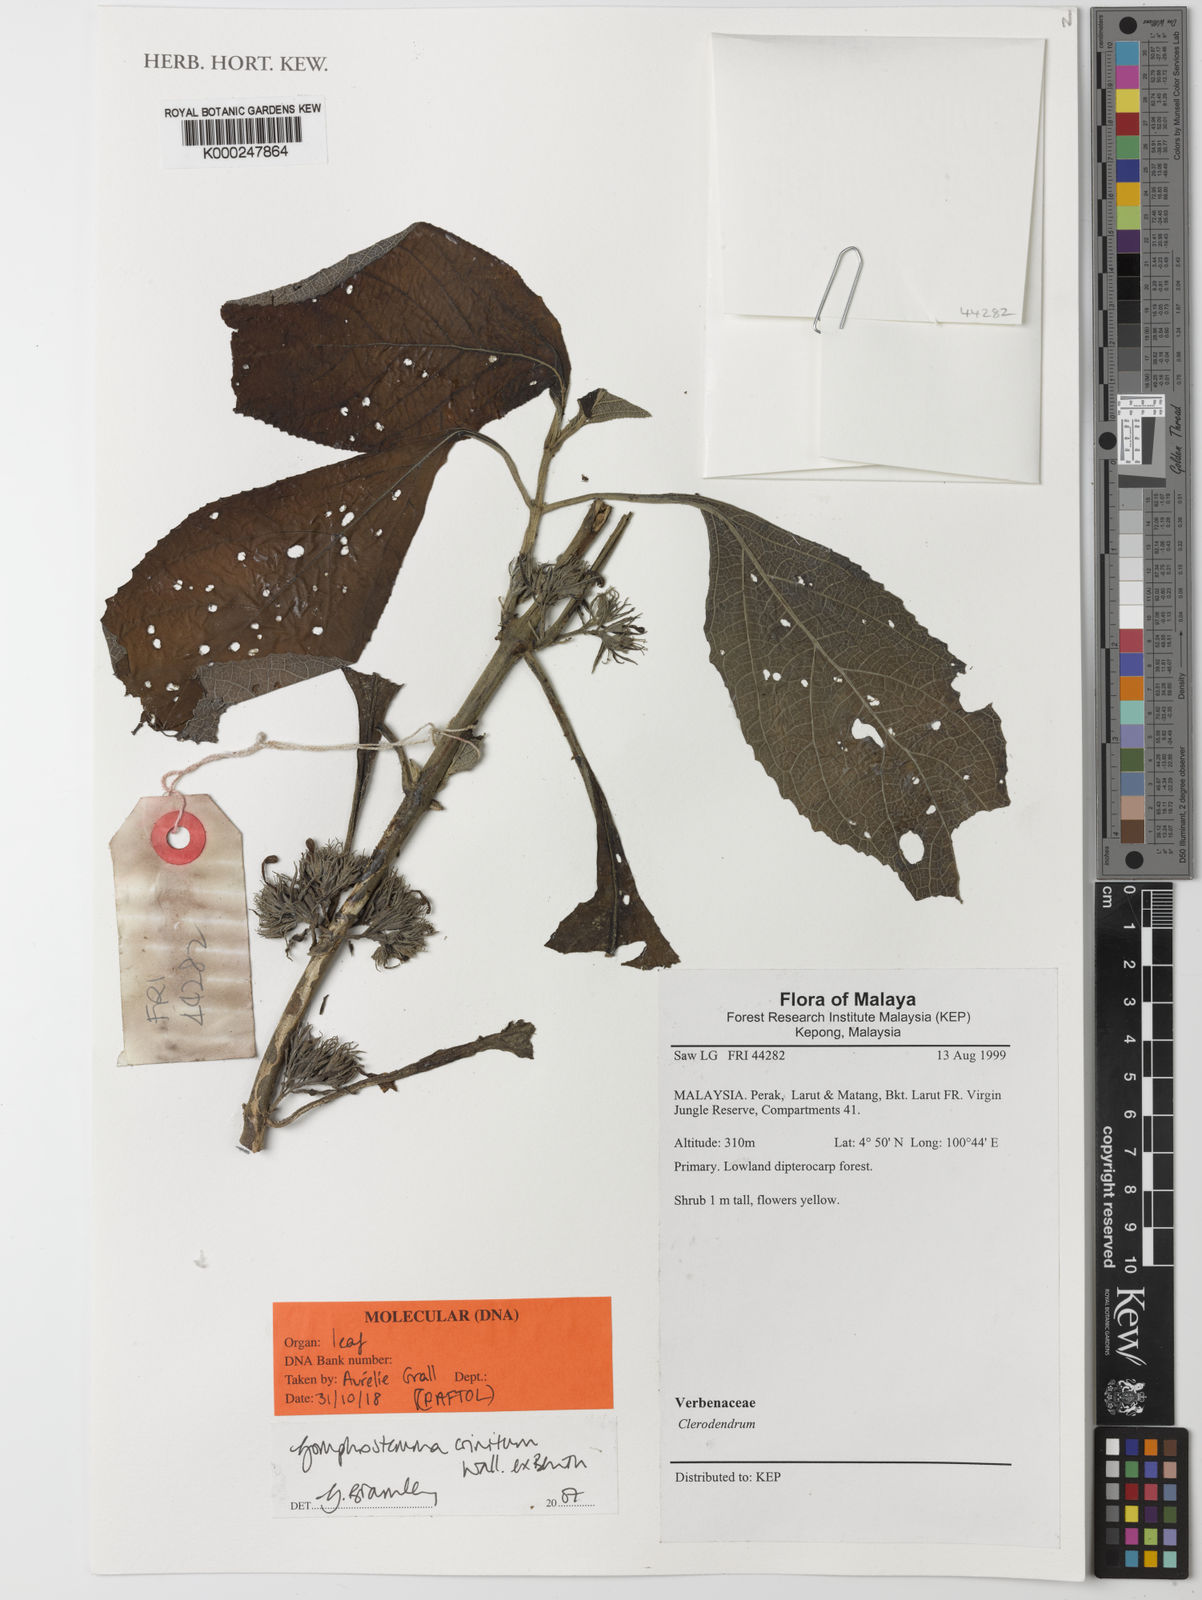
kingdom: Plantae
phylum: Tracheophyta
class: Magnoliopsida
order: Lamiales
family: Lamiaceae
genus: Gomphostemma
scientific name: Gomphostemma crinitum
